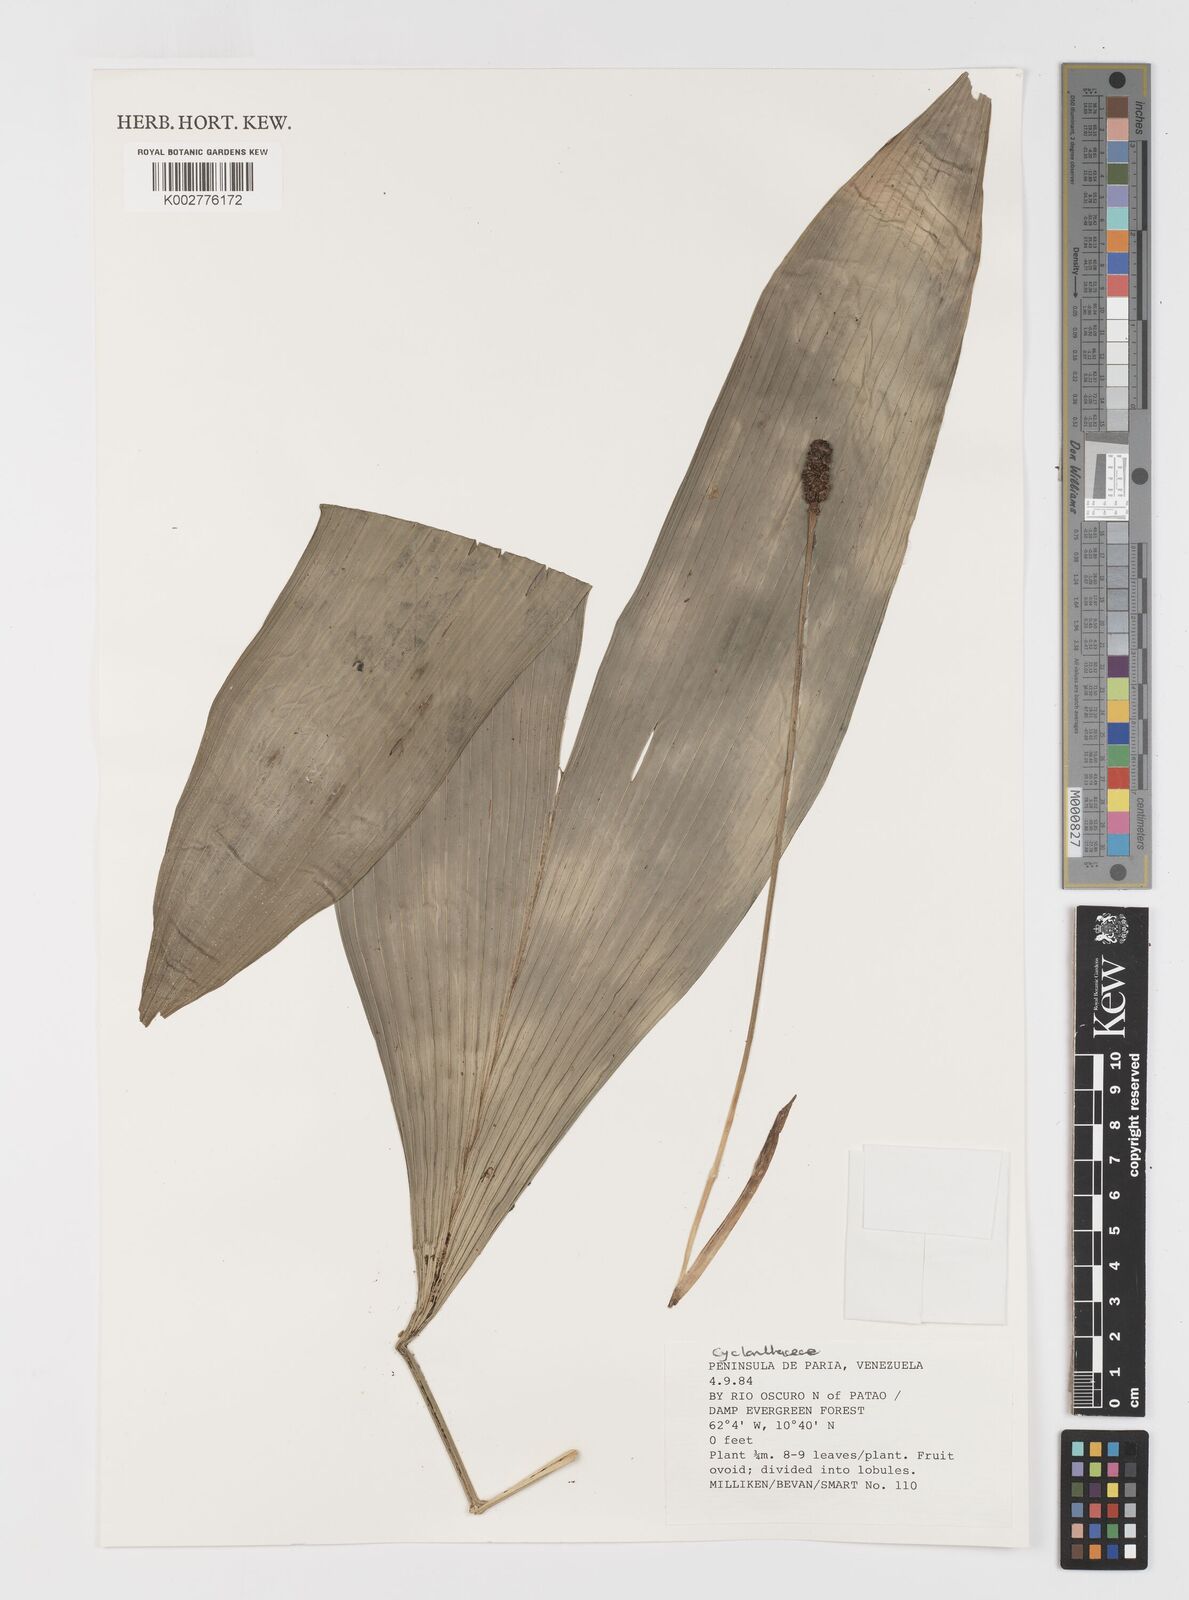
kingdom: Plantae
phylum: Tracheophyta
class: Liliopsida
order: Pandanales
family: Cyclanthaceae
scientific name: Cyclanthaceae
